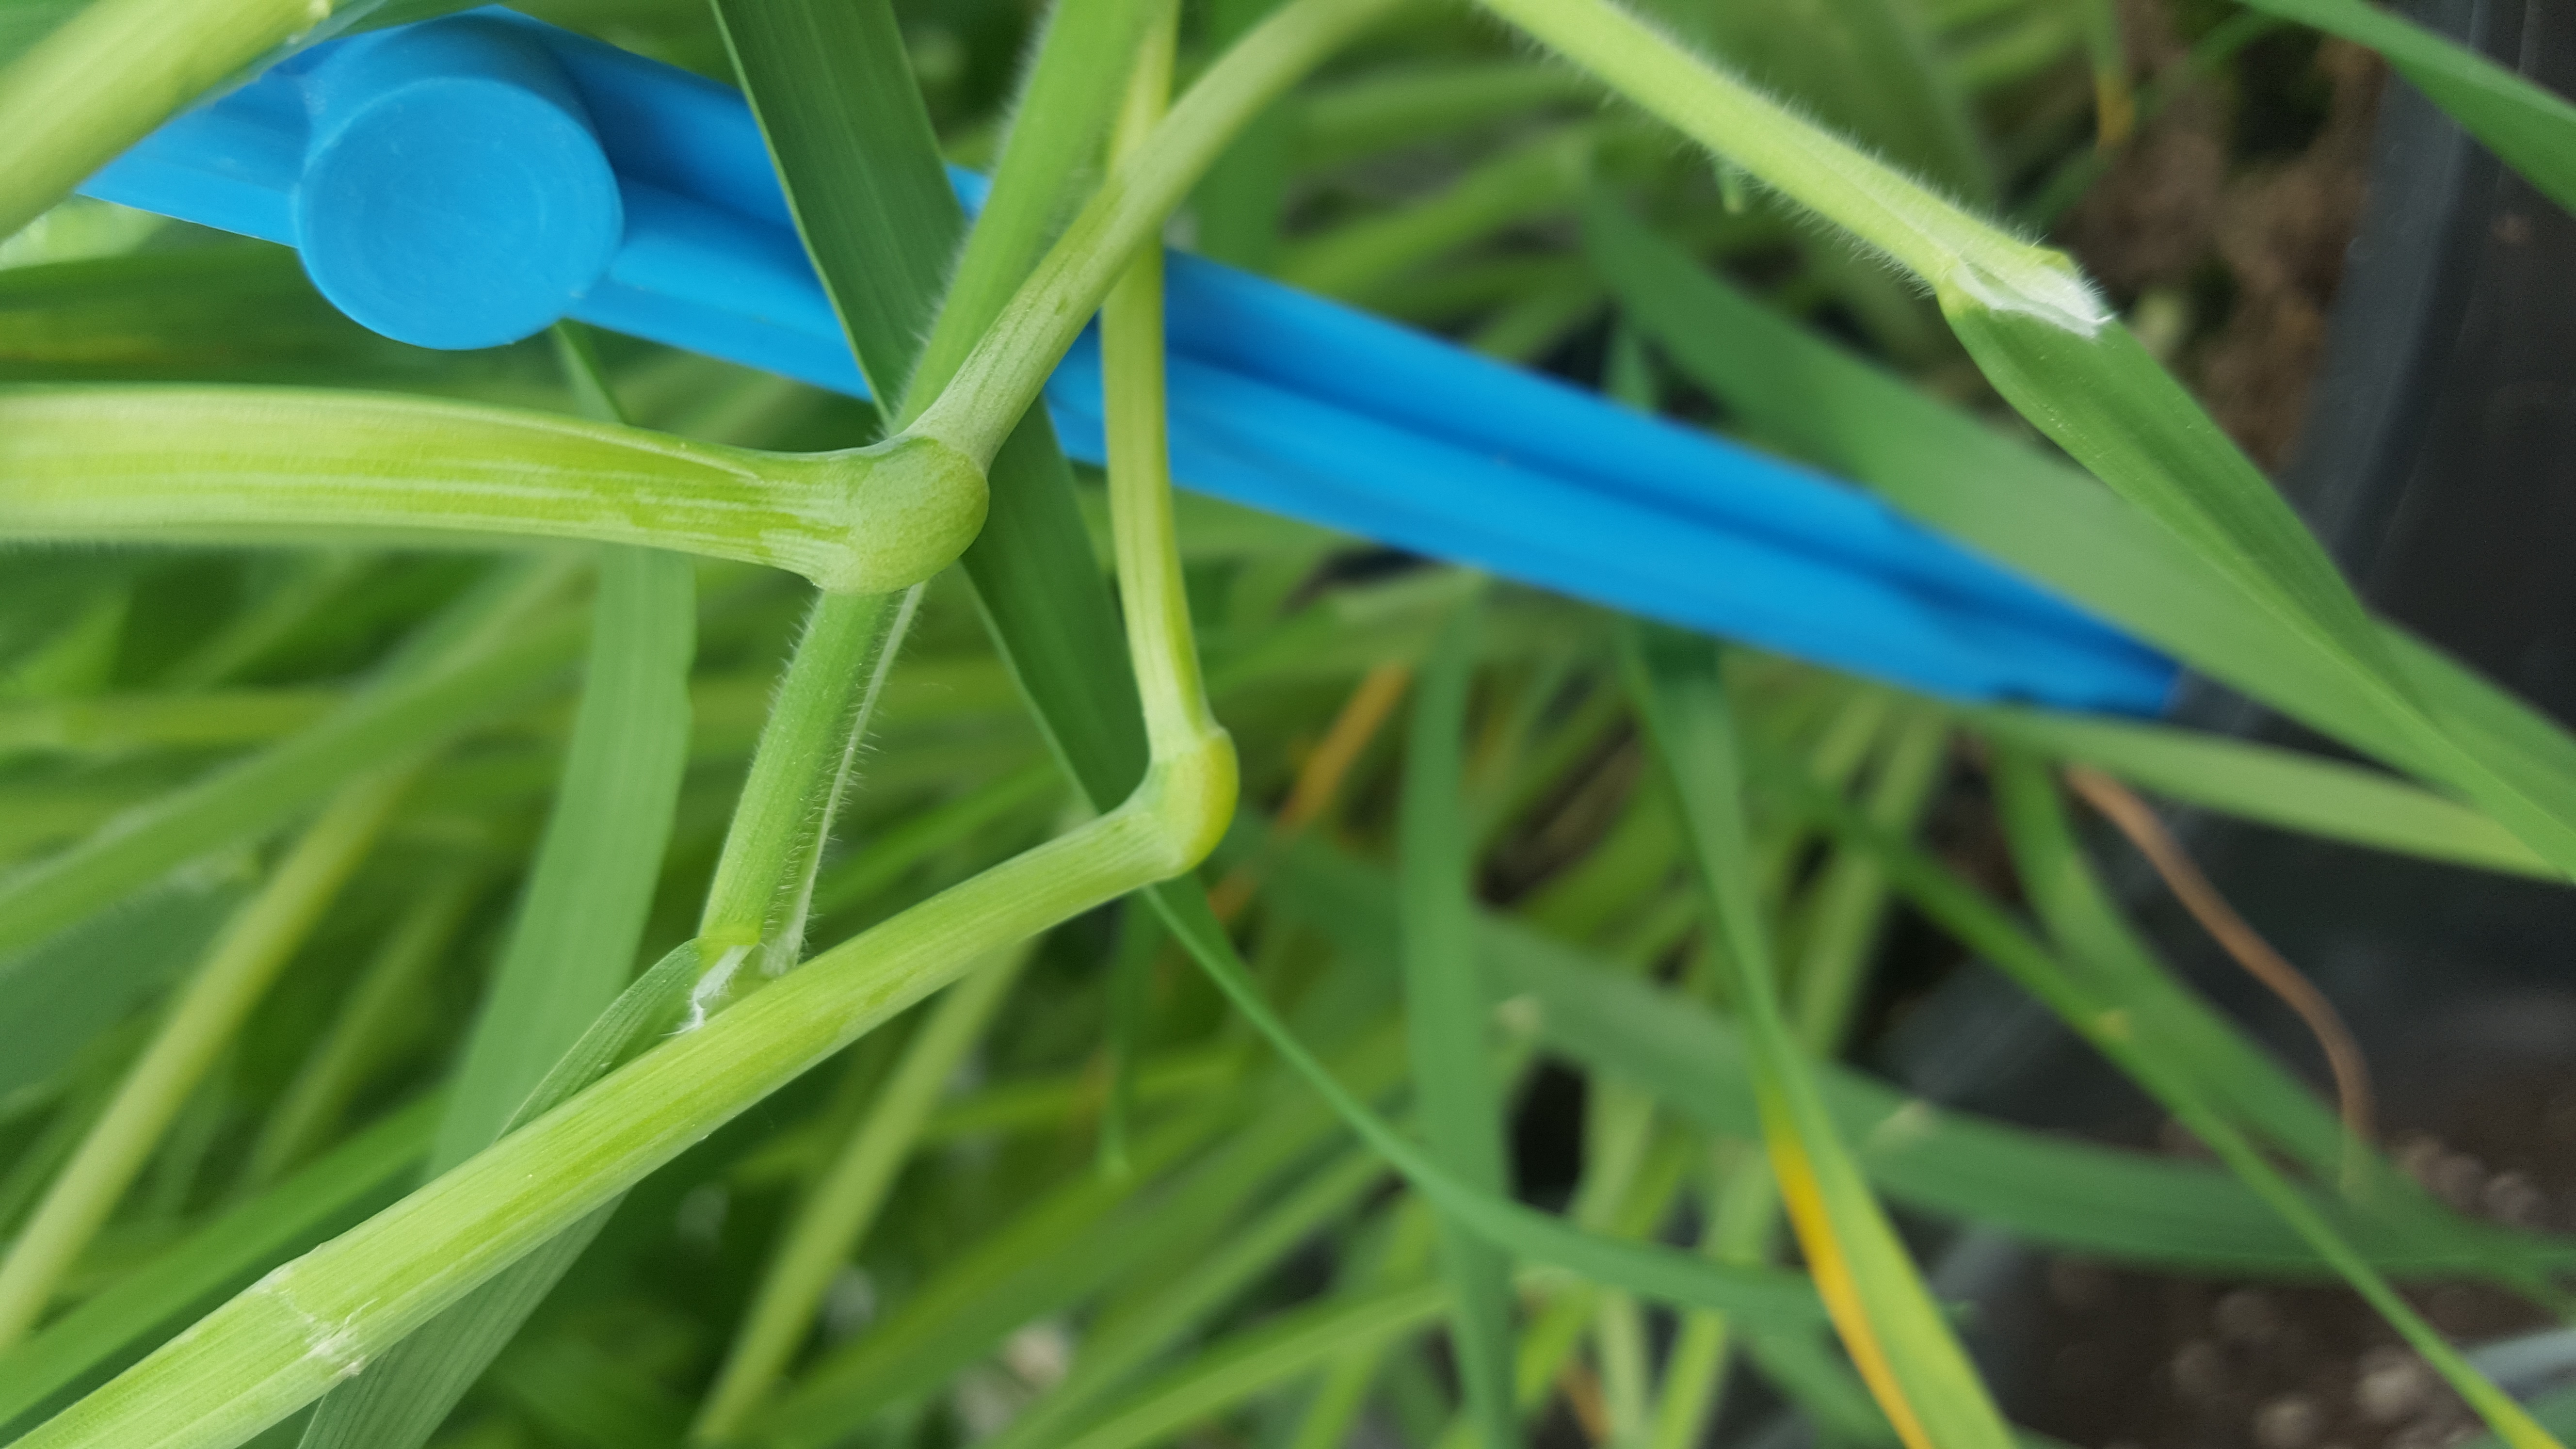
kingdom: Plantae
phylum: Tracheophyta
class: Liliopsida
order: Poales
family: Poaceae
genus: Hordeum
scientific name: Hordeum parodii
